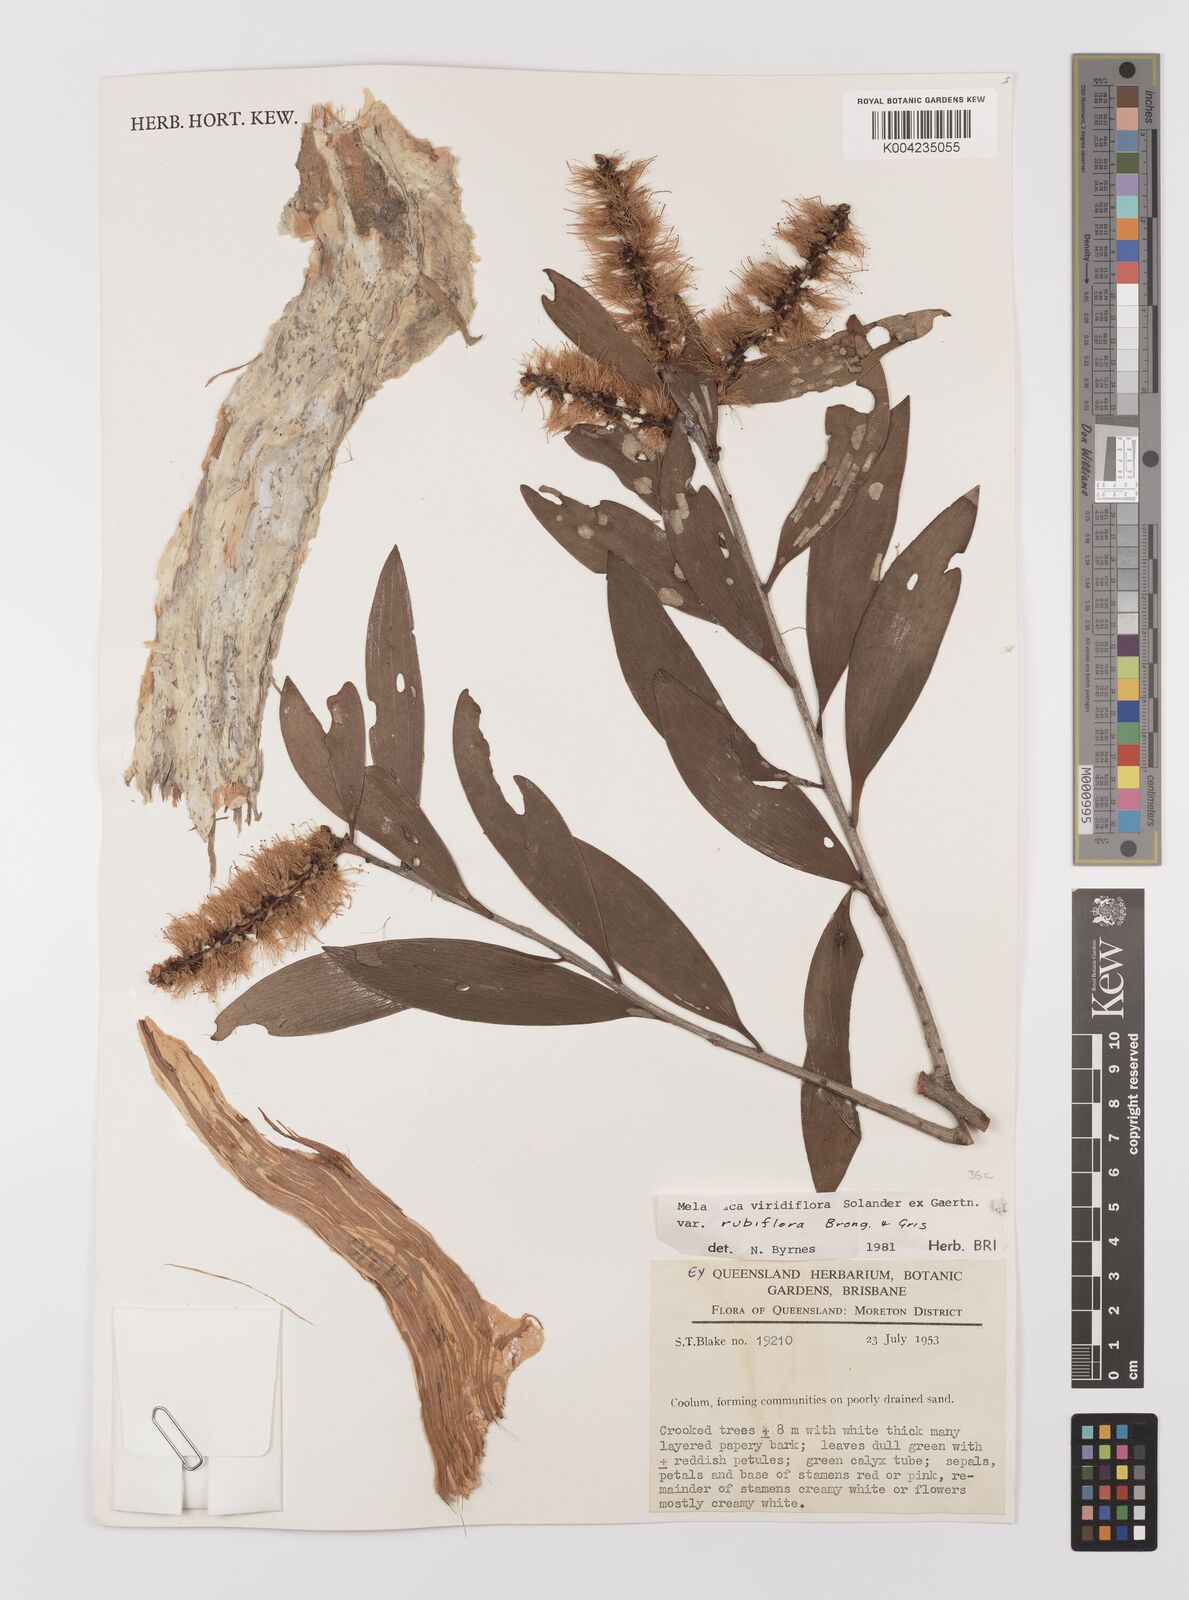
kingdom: Plantae
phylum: Tracheophyta
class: Magnoliopsida
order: Myrtales
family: Myrtaceae
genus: Melaleuca
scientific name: Melaleuca viridiflora
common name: Brown-leaved paperbark
